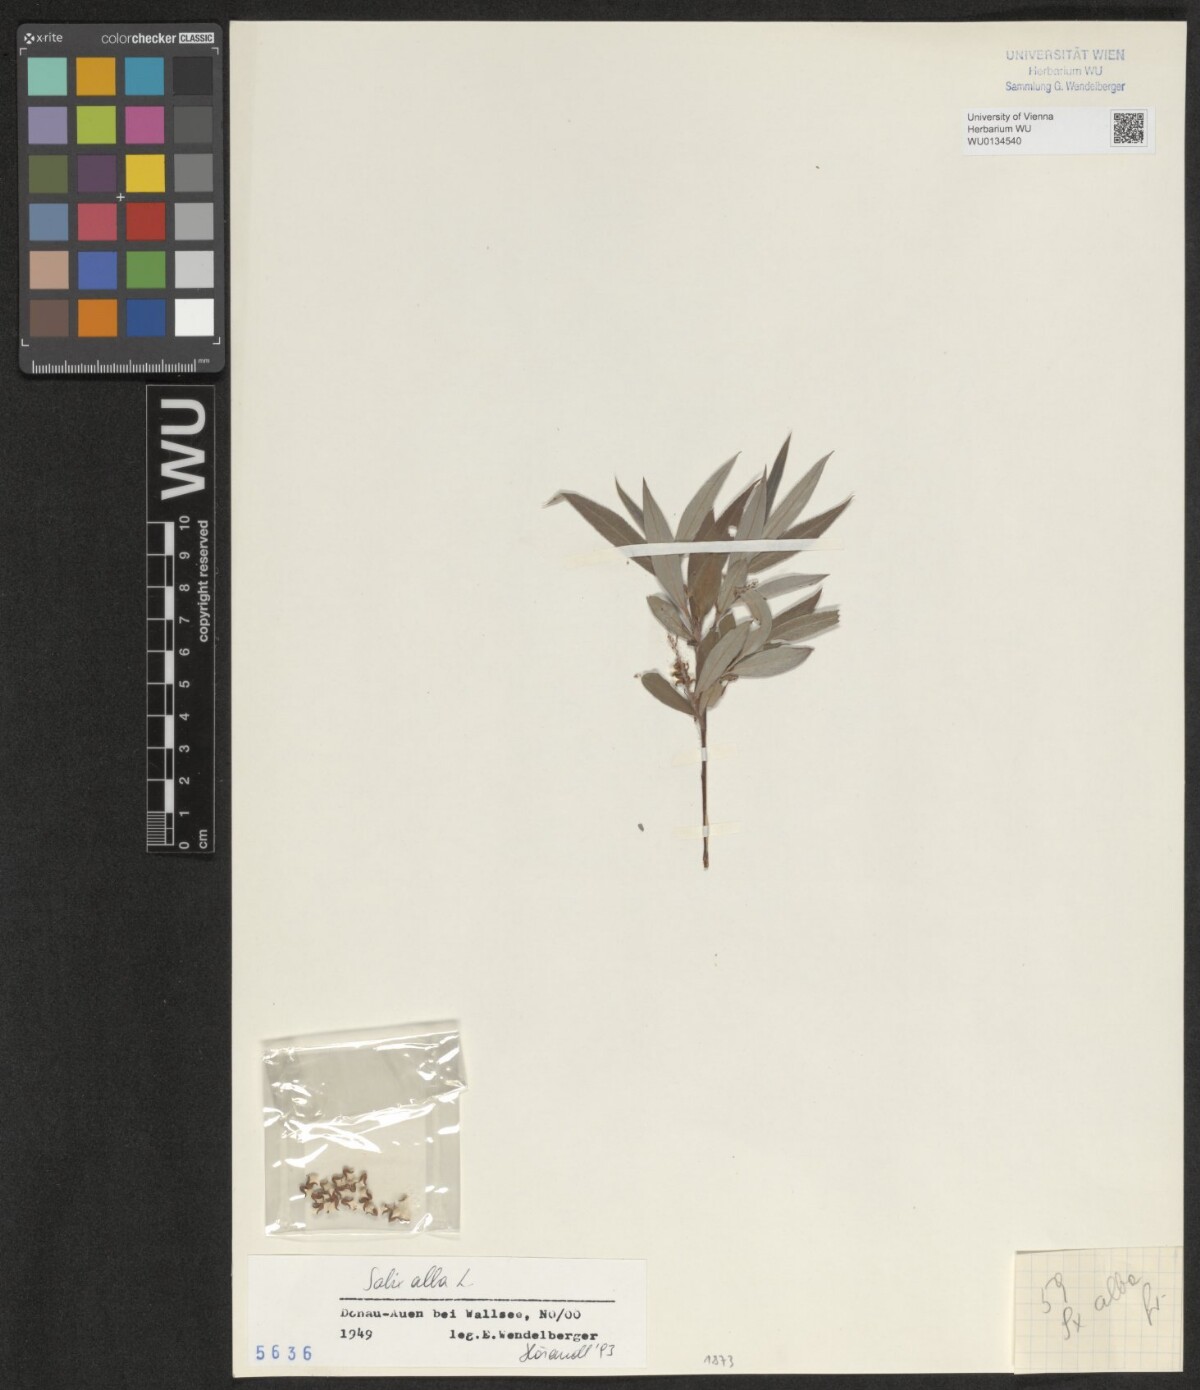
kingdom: Plantae
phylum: Tracheophyta
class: Magnoliopsida
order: Malpighiales
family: Salicaceae
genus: Salix
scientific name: Salix alba
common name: White willow
